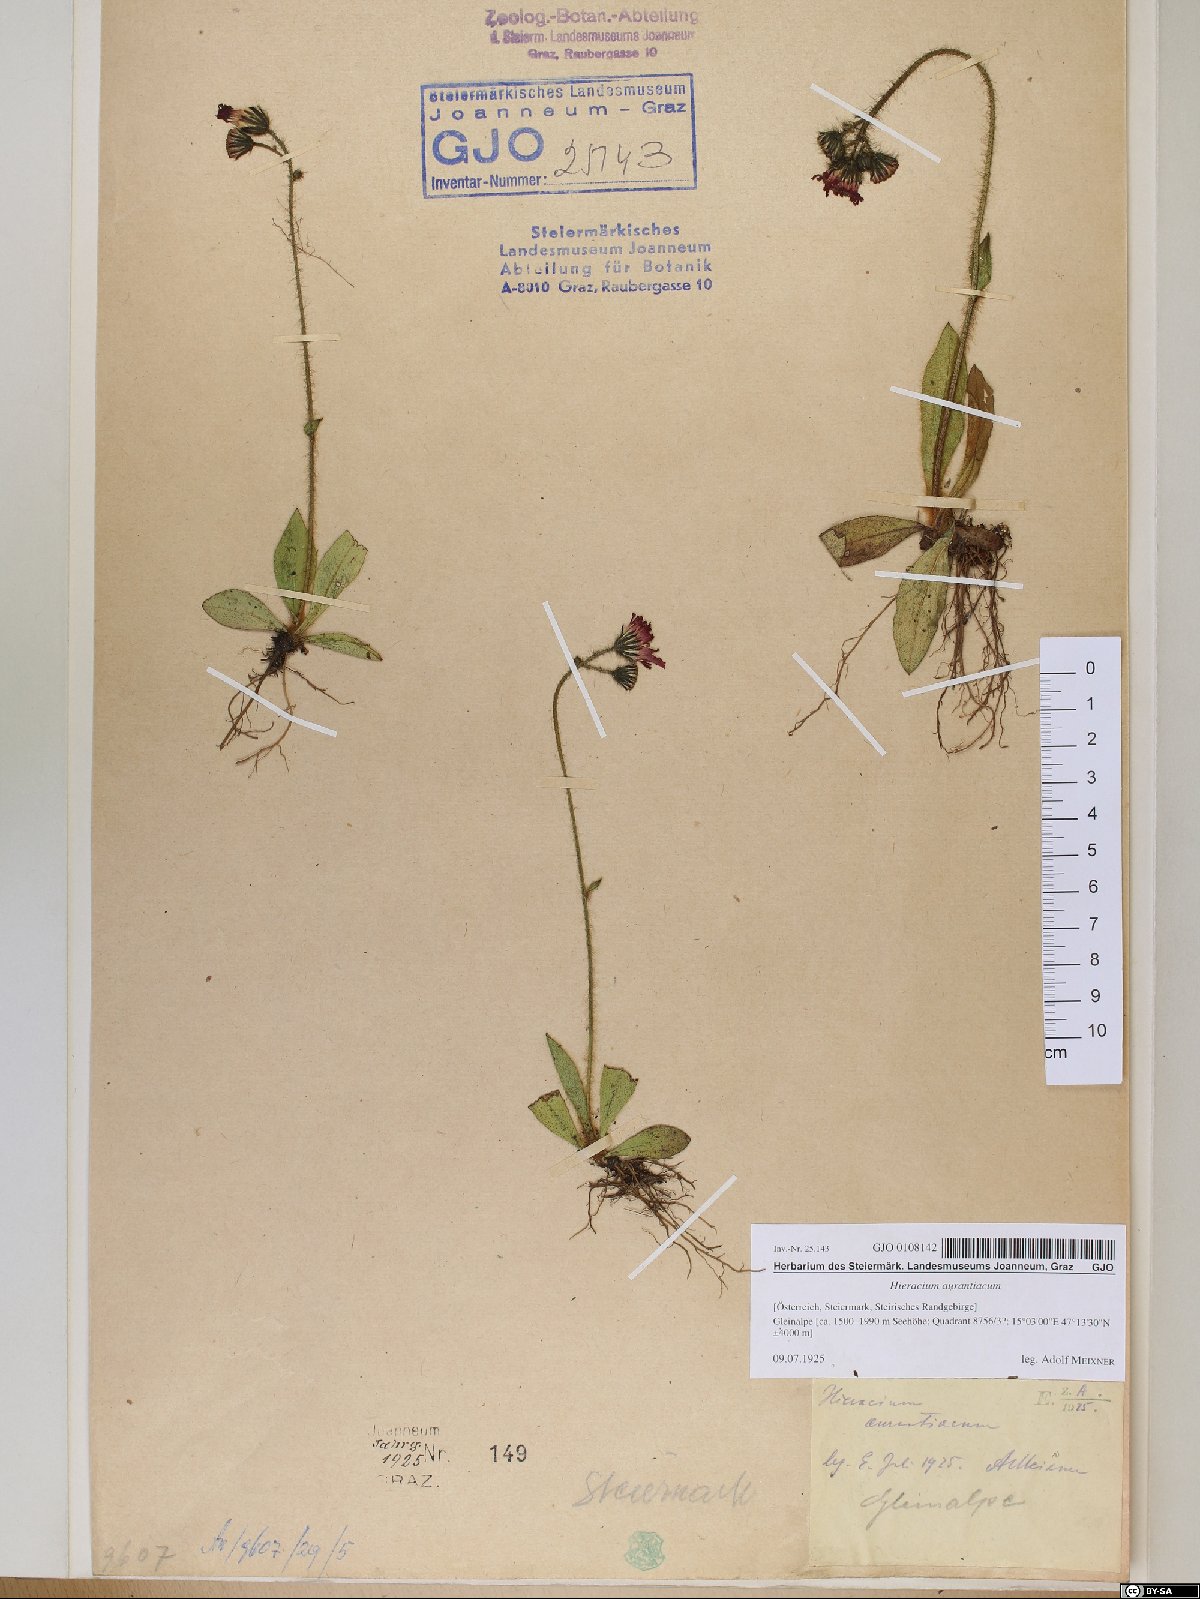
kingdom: Plantae
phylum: Tracheophyta
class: Magnoliopsida
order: Asterales
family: Asteraceae
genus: Pilosella
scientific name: Pilosella aurantiaca
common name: Fox-and-cubs
